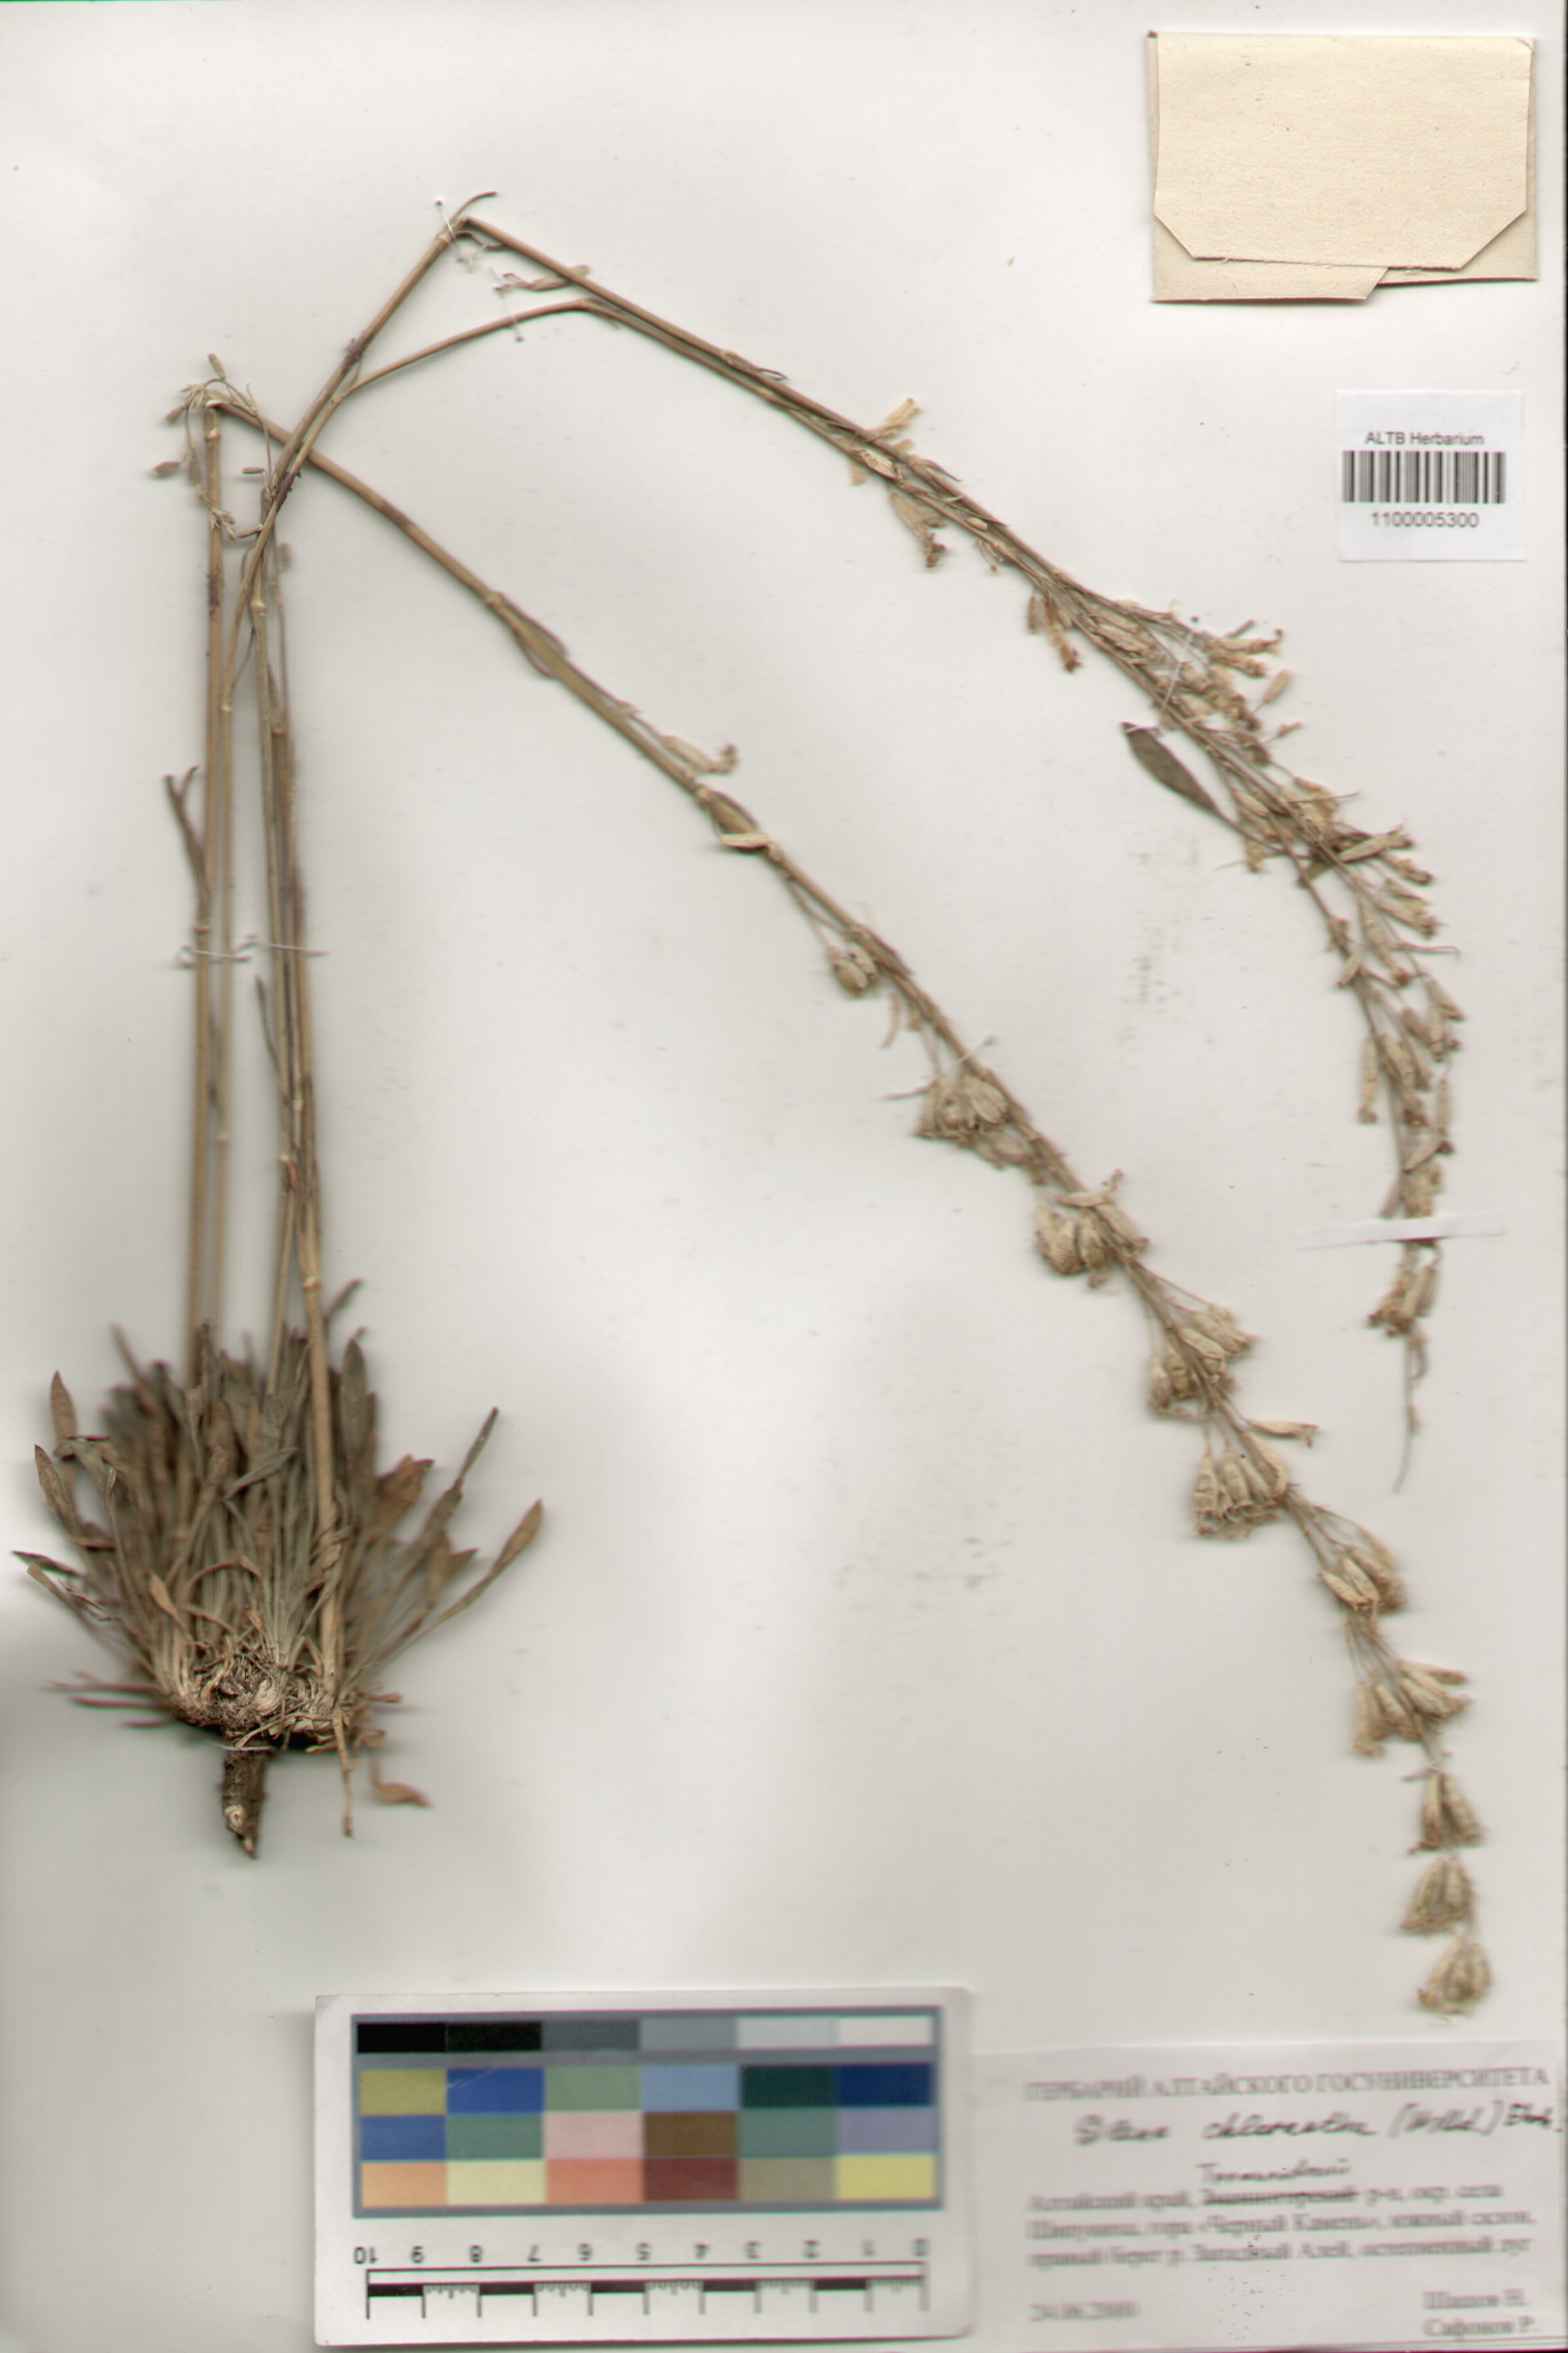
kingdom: Plantae
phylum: Tracheophyta
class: Magnoliopsida
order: Caryophyllales
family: Caryophyllaceae
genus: Silene
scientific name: Silene chlorantha
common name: Yellowgreen catchfly
